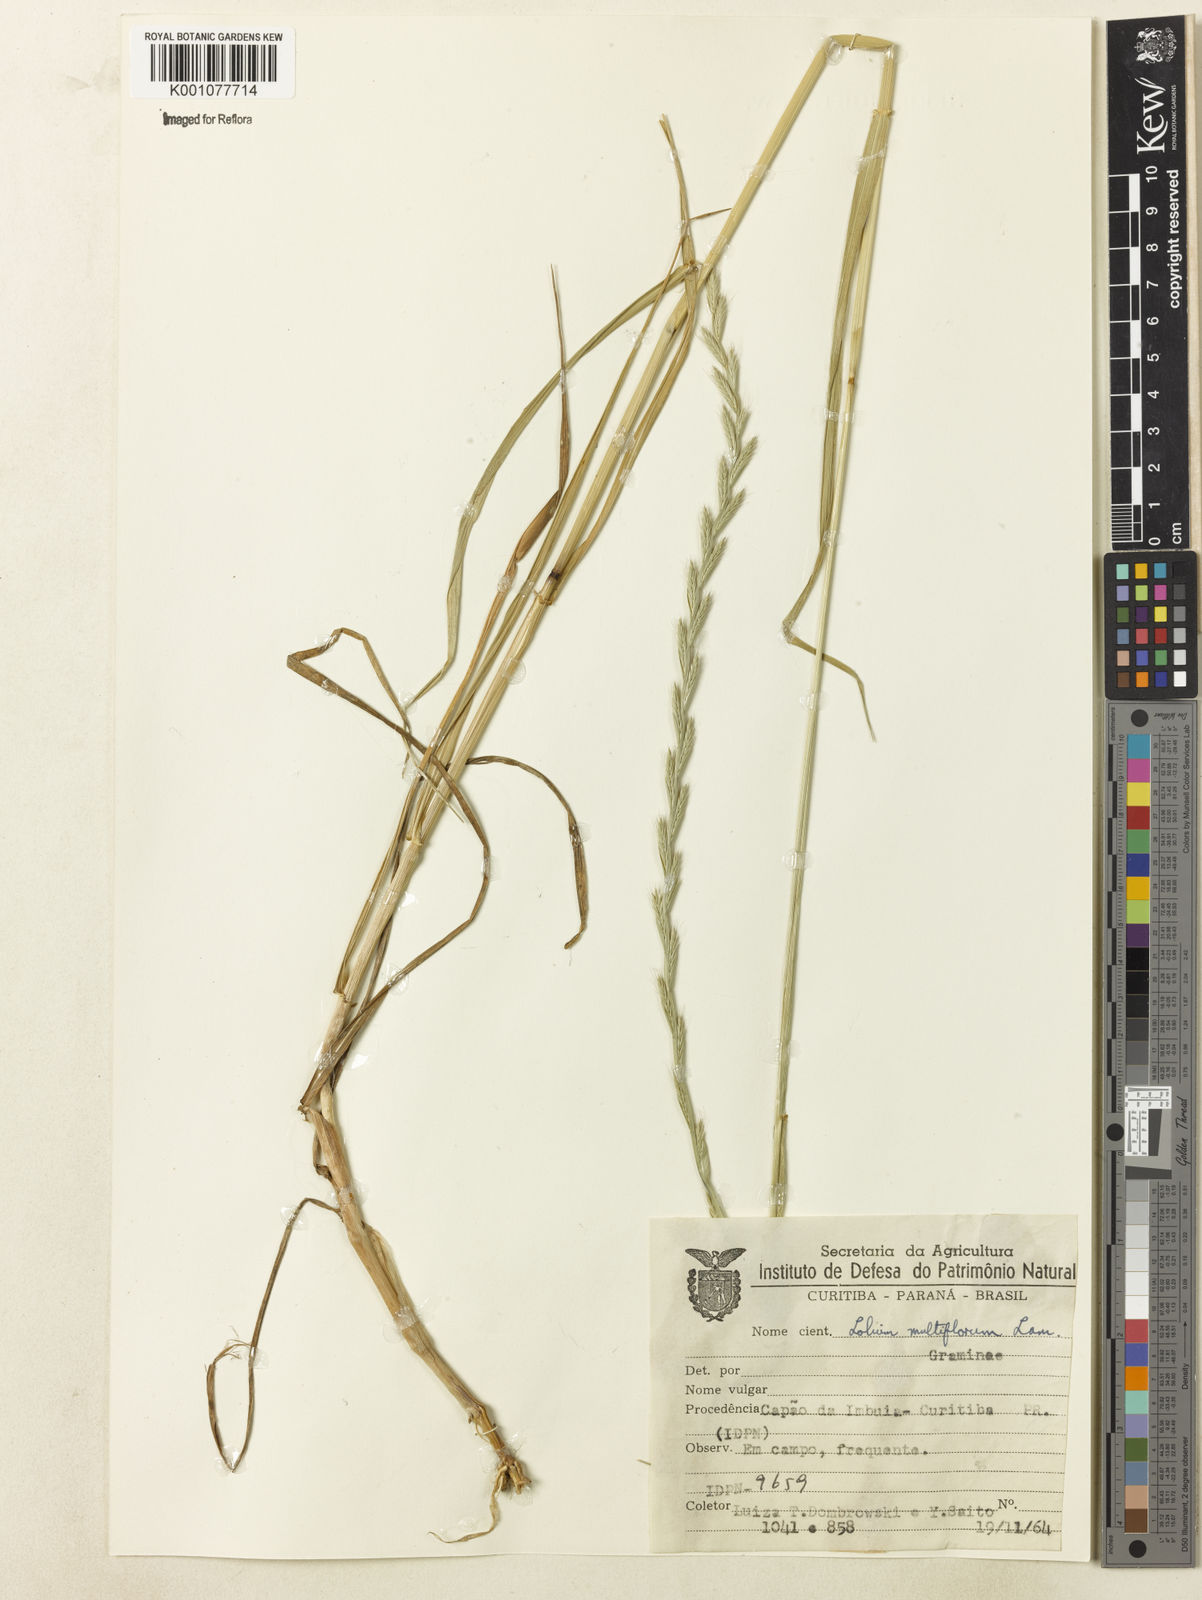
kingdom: Plantae
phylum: Tracheophyta
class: Liliopsida
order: Poales
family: Poaceae
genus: Lolium
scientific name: Lolium multiflorum
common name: Annual ryegrass
